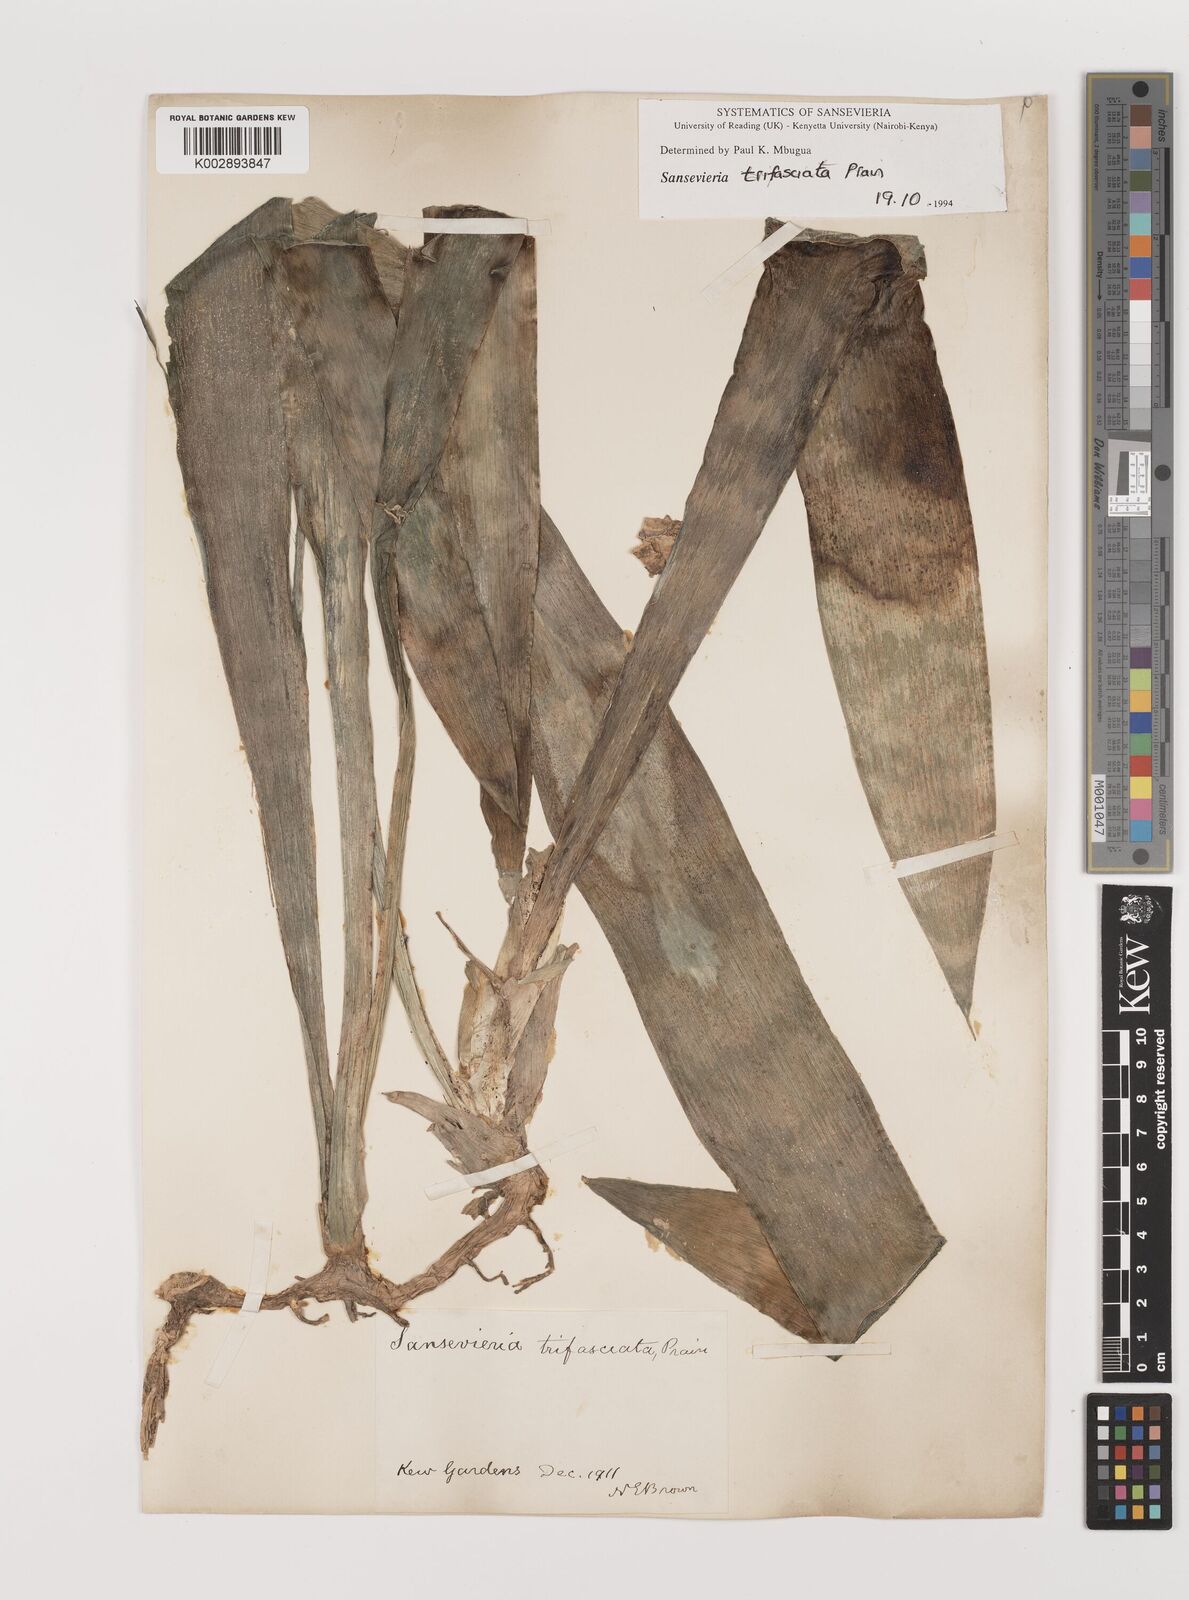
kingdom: Plantae
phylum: Tracheophyta
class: Liliopsida
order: Asparagales
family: Asparagaceae
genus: Dracaena
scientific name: Dracaena trifasciata
